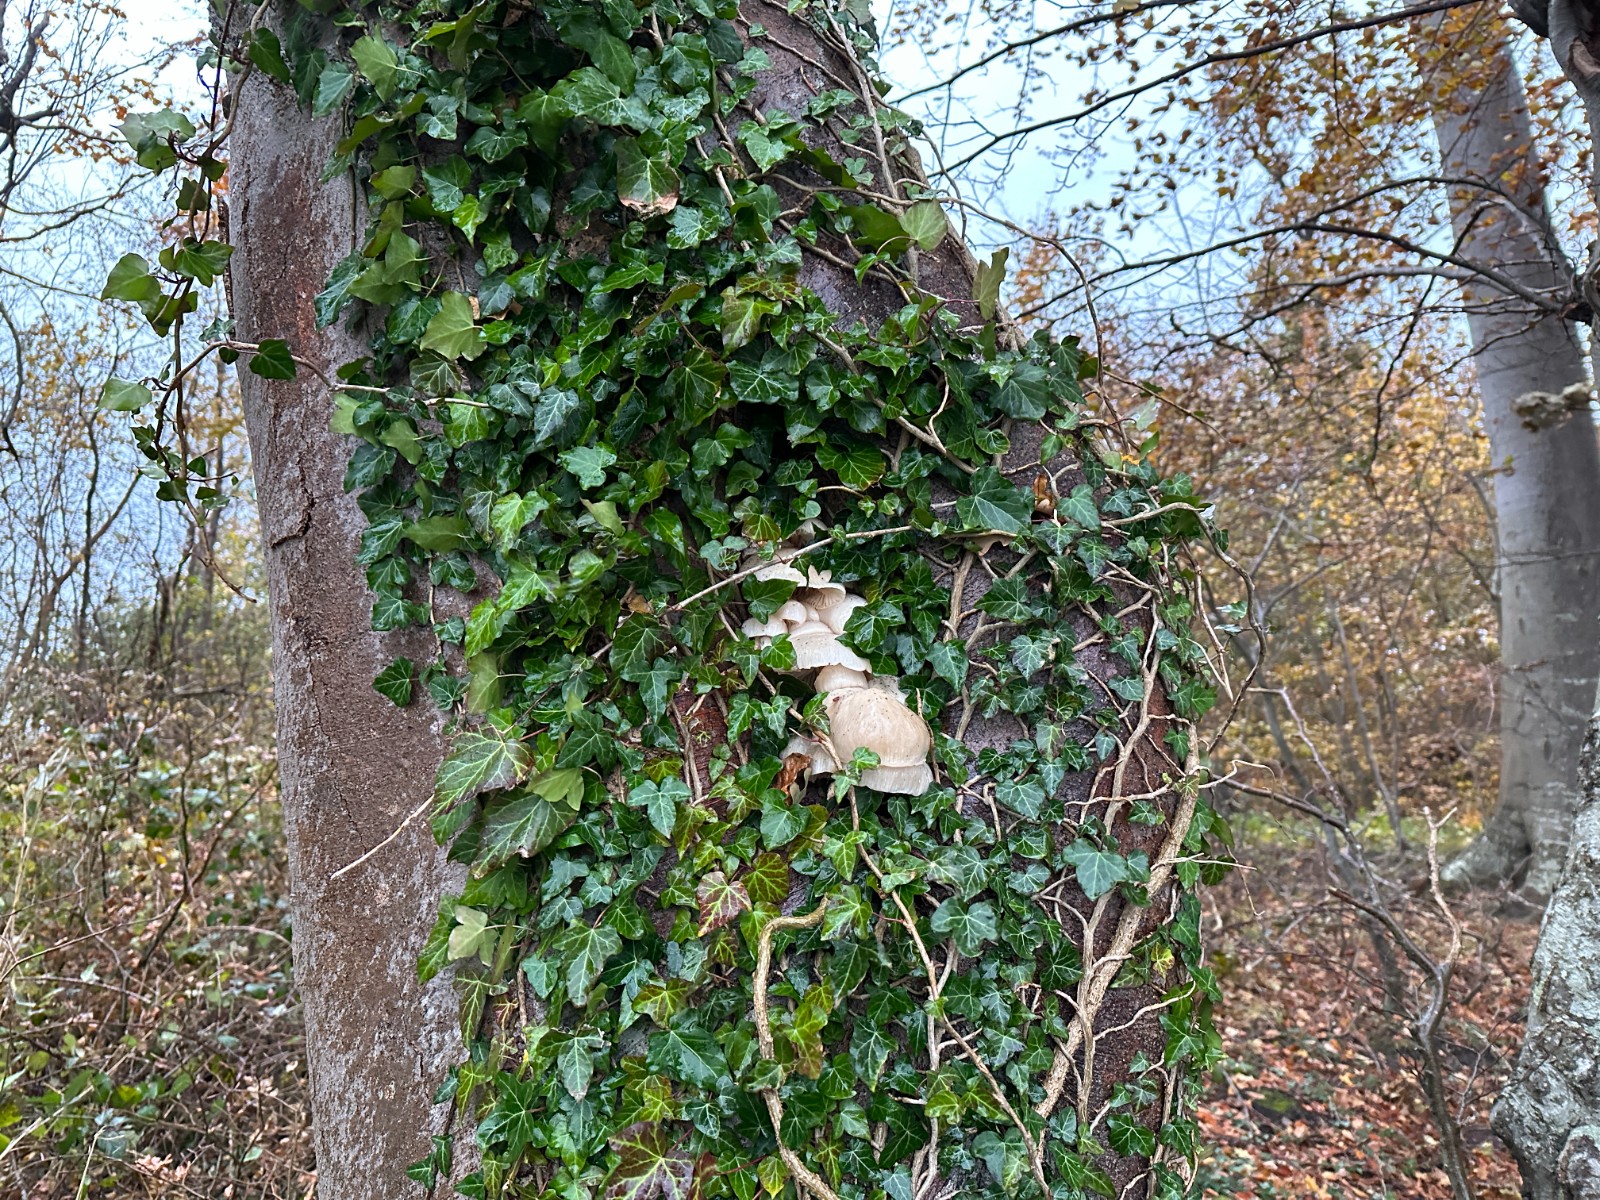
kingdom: Fungi
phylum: Basidiomycota
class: Agaricomycetes
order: Agaricales
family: Physalacriaceae
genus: Mucidula
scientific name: Mucidula mucida
